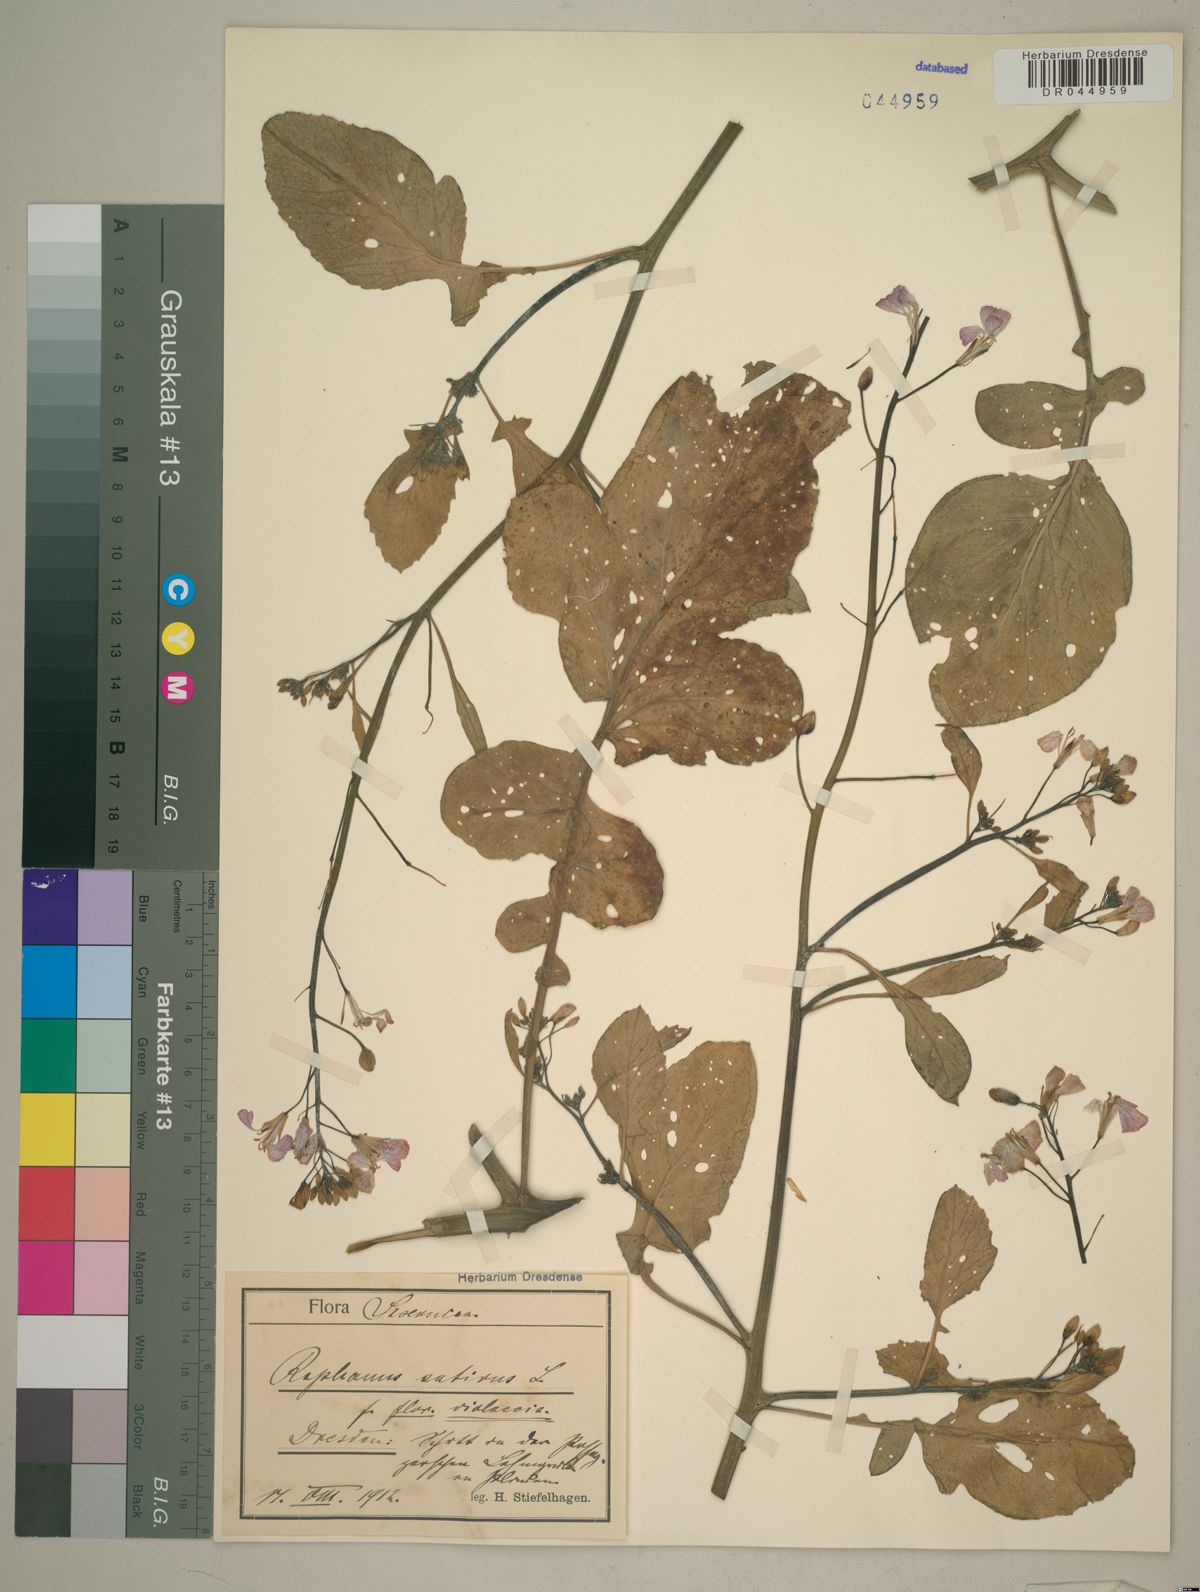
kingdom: Plantae
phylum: Tracheophyta
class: Magnoliopsida
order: Brassicales
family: Brassicaceae
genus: Raphanus
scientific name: Raphanus sativus
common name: Cultivated radish
